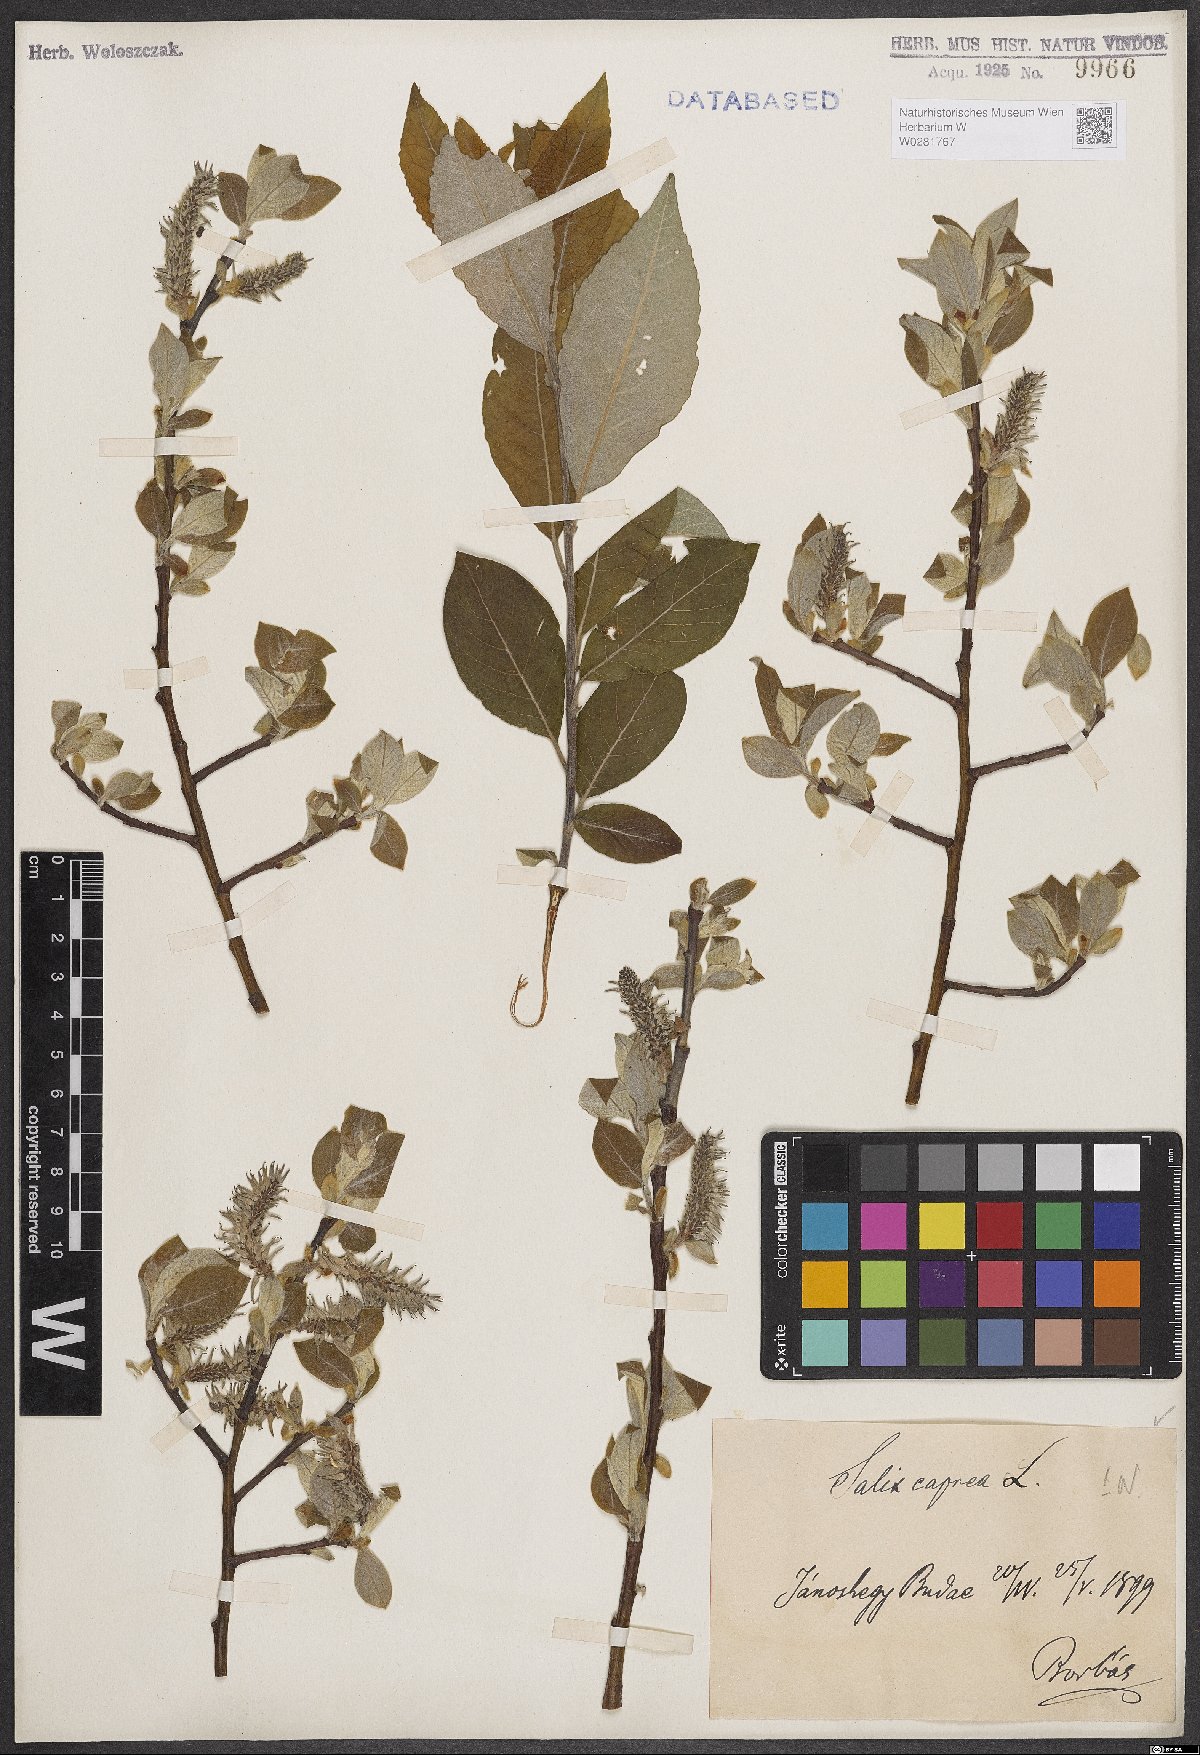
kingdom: Plantae
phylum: Tracheophyta
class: Magnoliopsida
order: Malpighiales
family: Salicaceae
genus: Salix
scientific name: Salix caprea
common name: Goat willow
